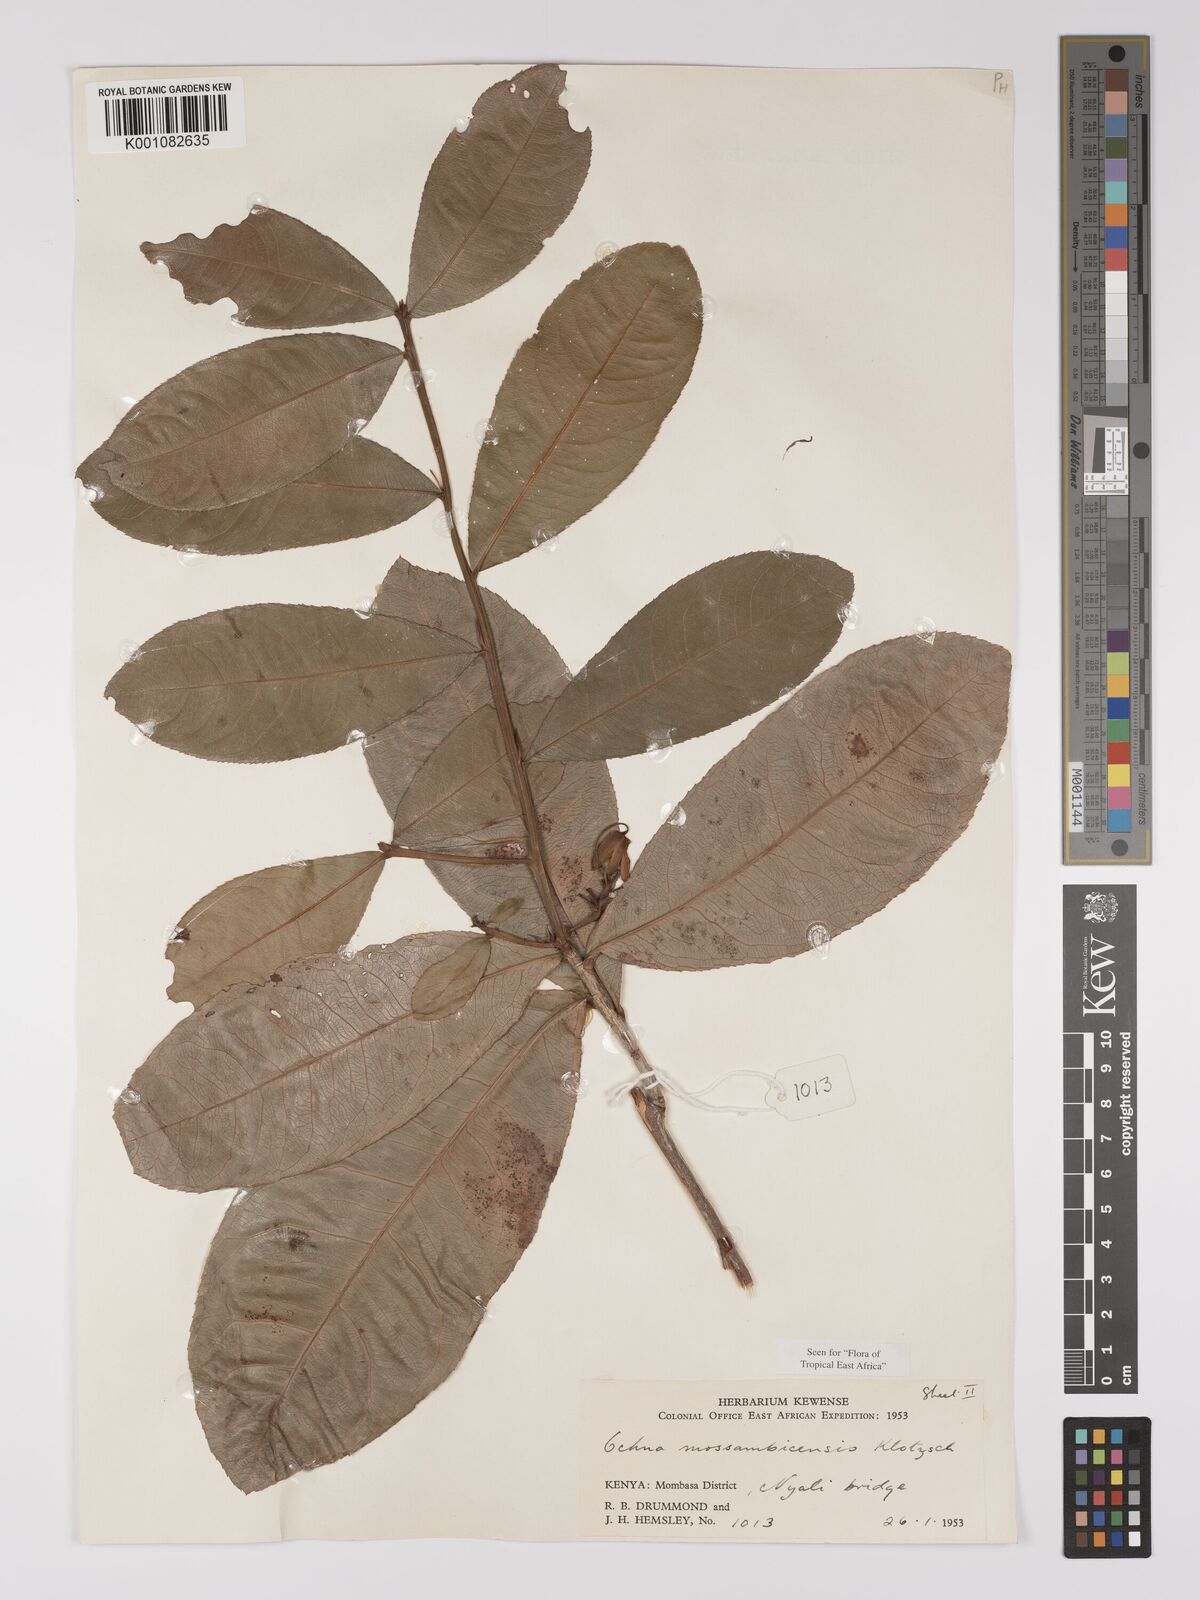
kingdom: Plantae
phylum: Tracheophyta
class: Magnoliopsida
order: Malpighiales
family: Ochnaceae
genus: Ochna
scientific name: Ochna atropurpurea
